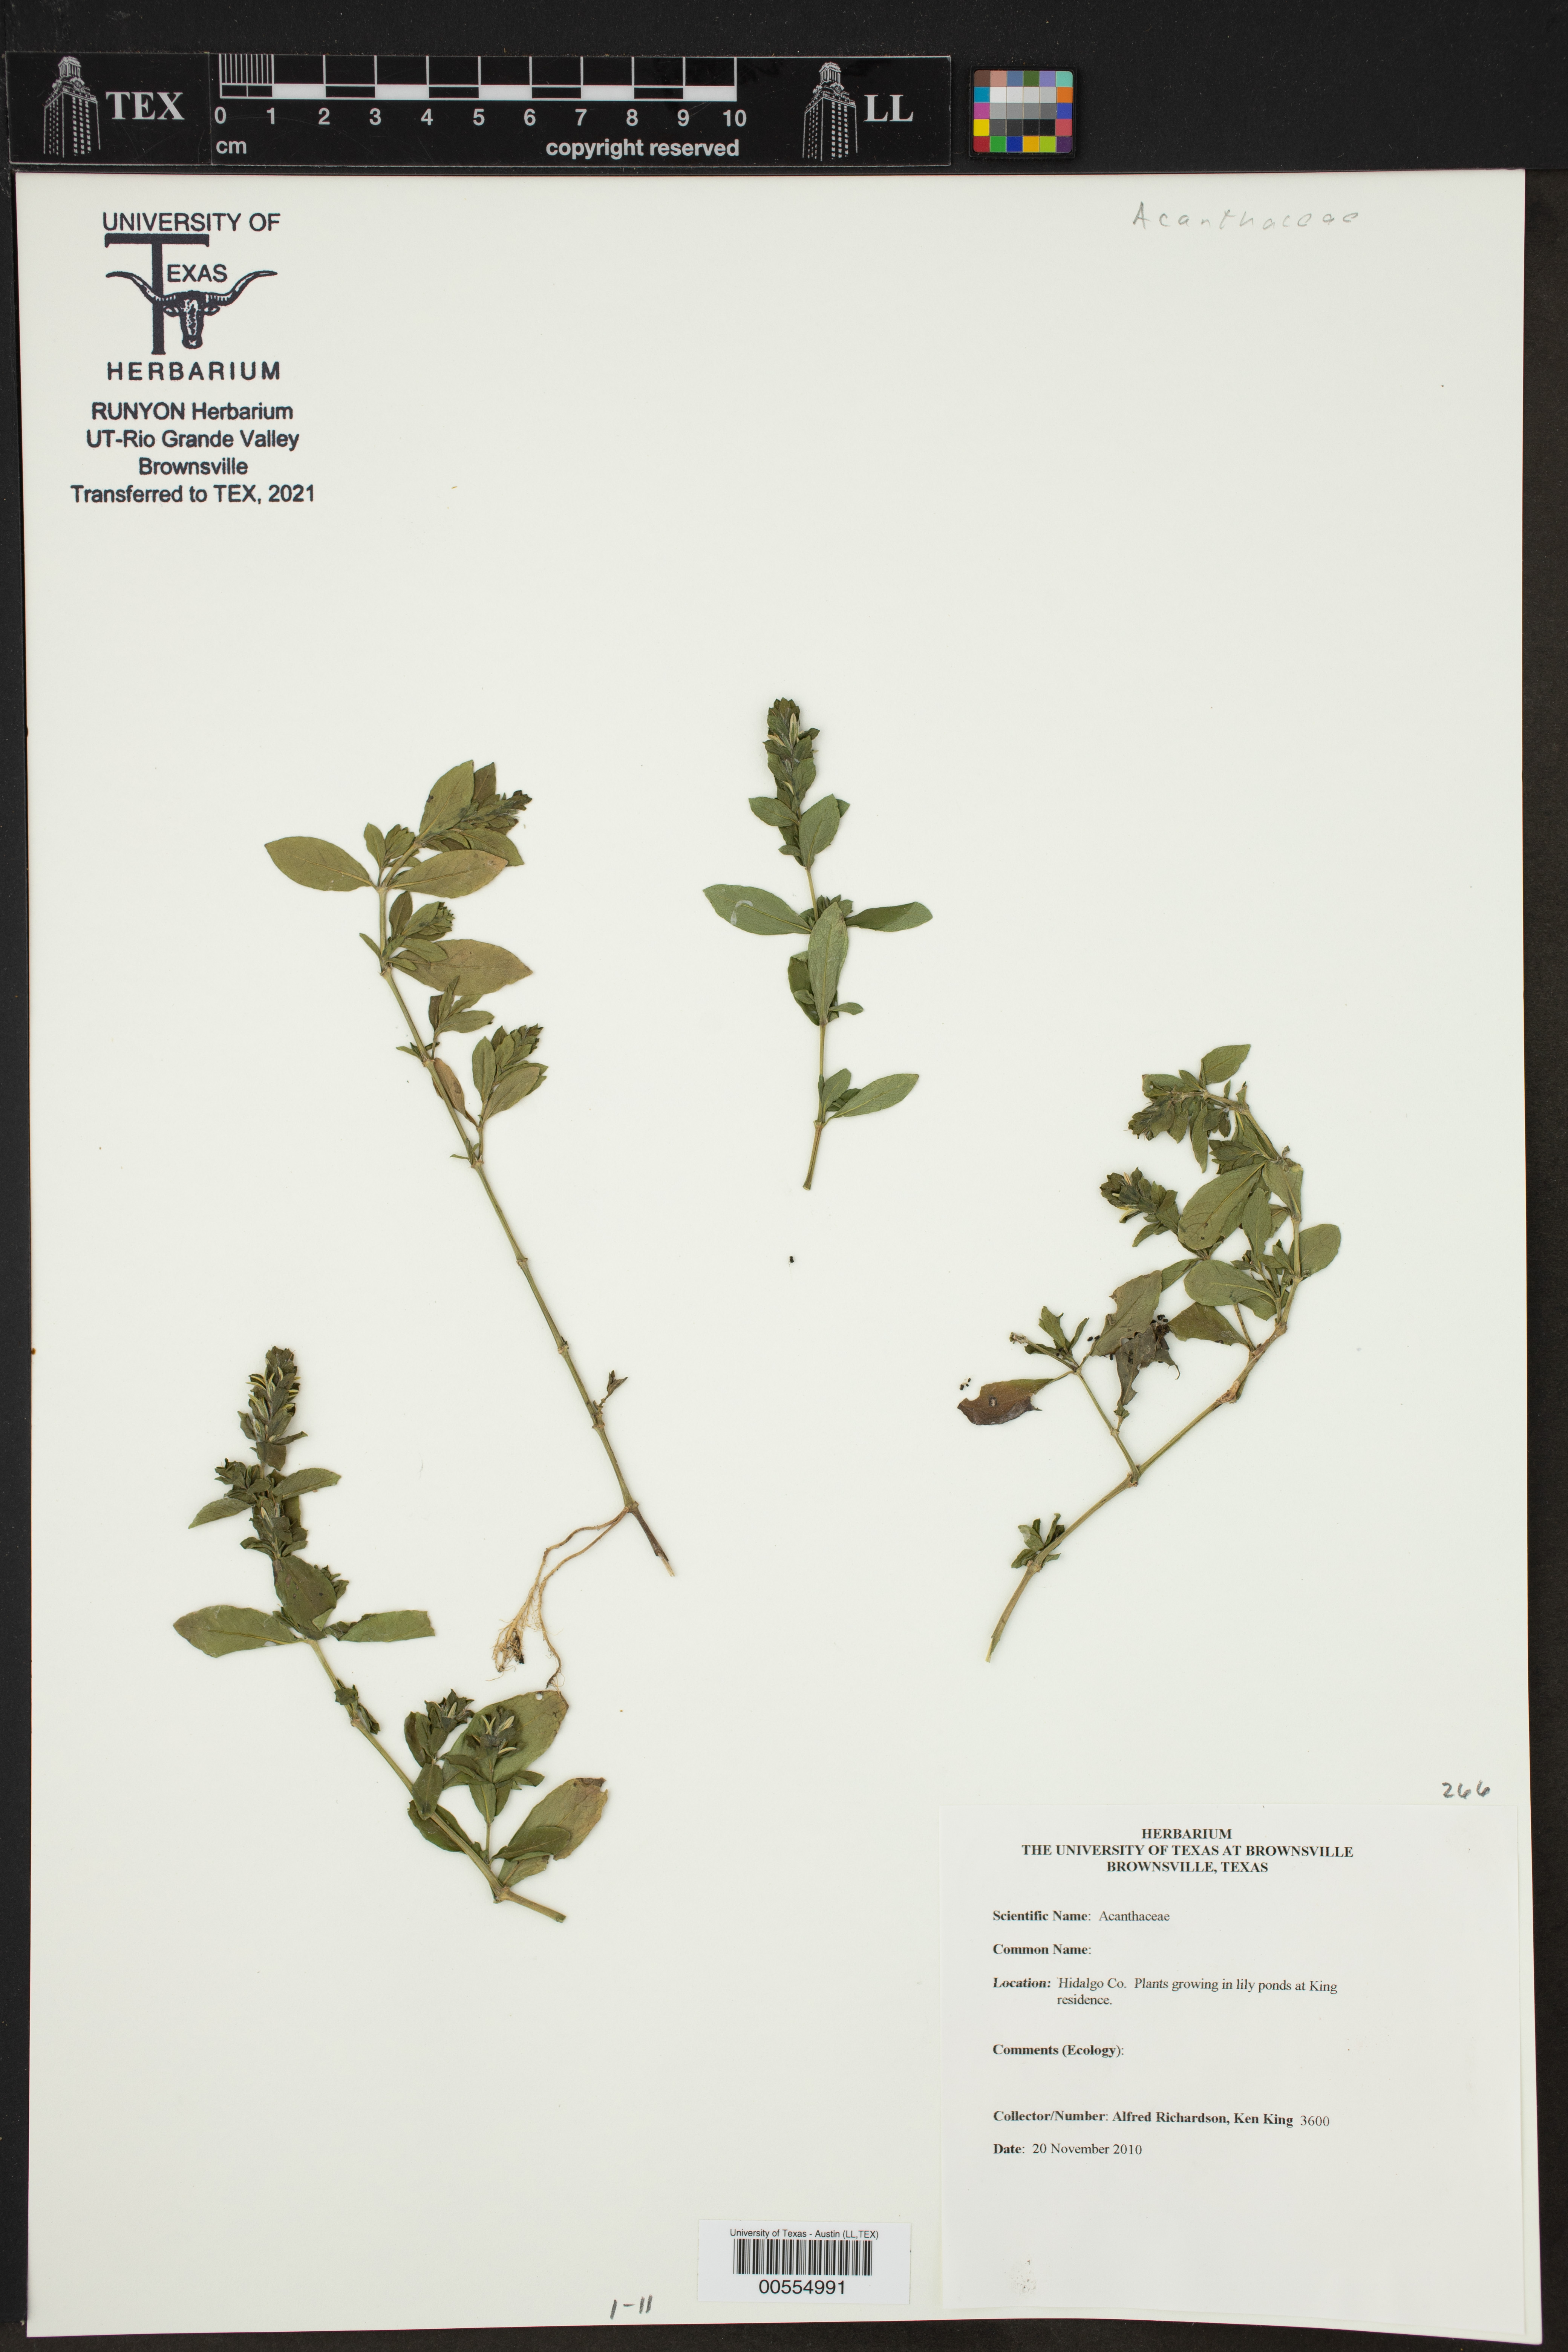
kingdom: Plantae
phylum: Tracheophyta
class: Magnoliopsida
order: Lamiales
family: Acanthaceae
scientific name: Acanthaceae
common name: Acanthaceae
